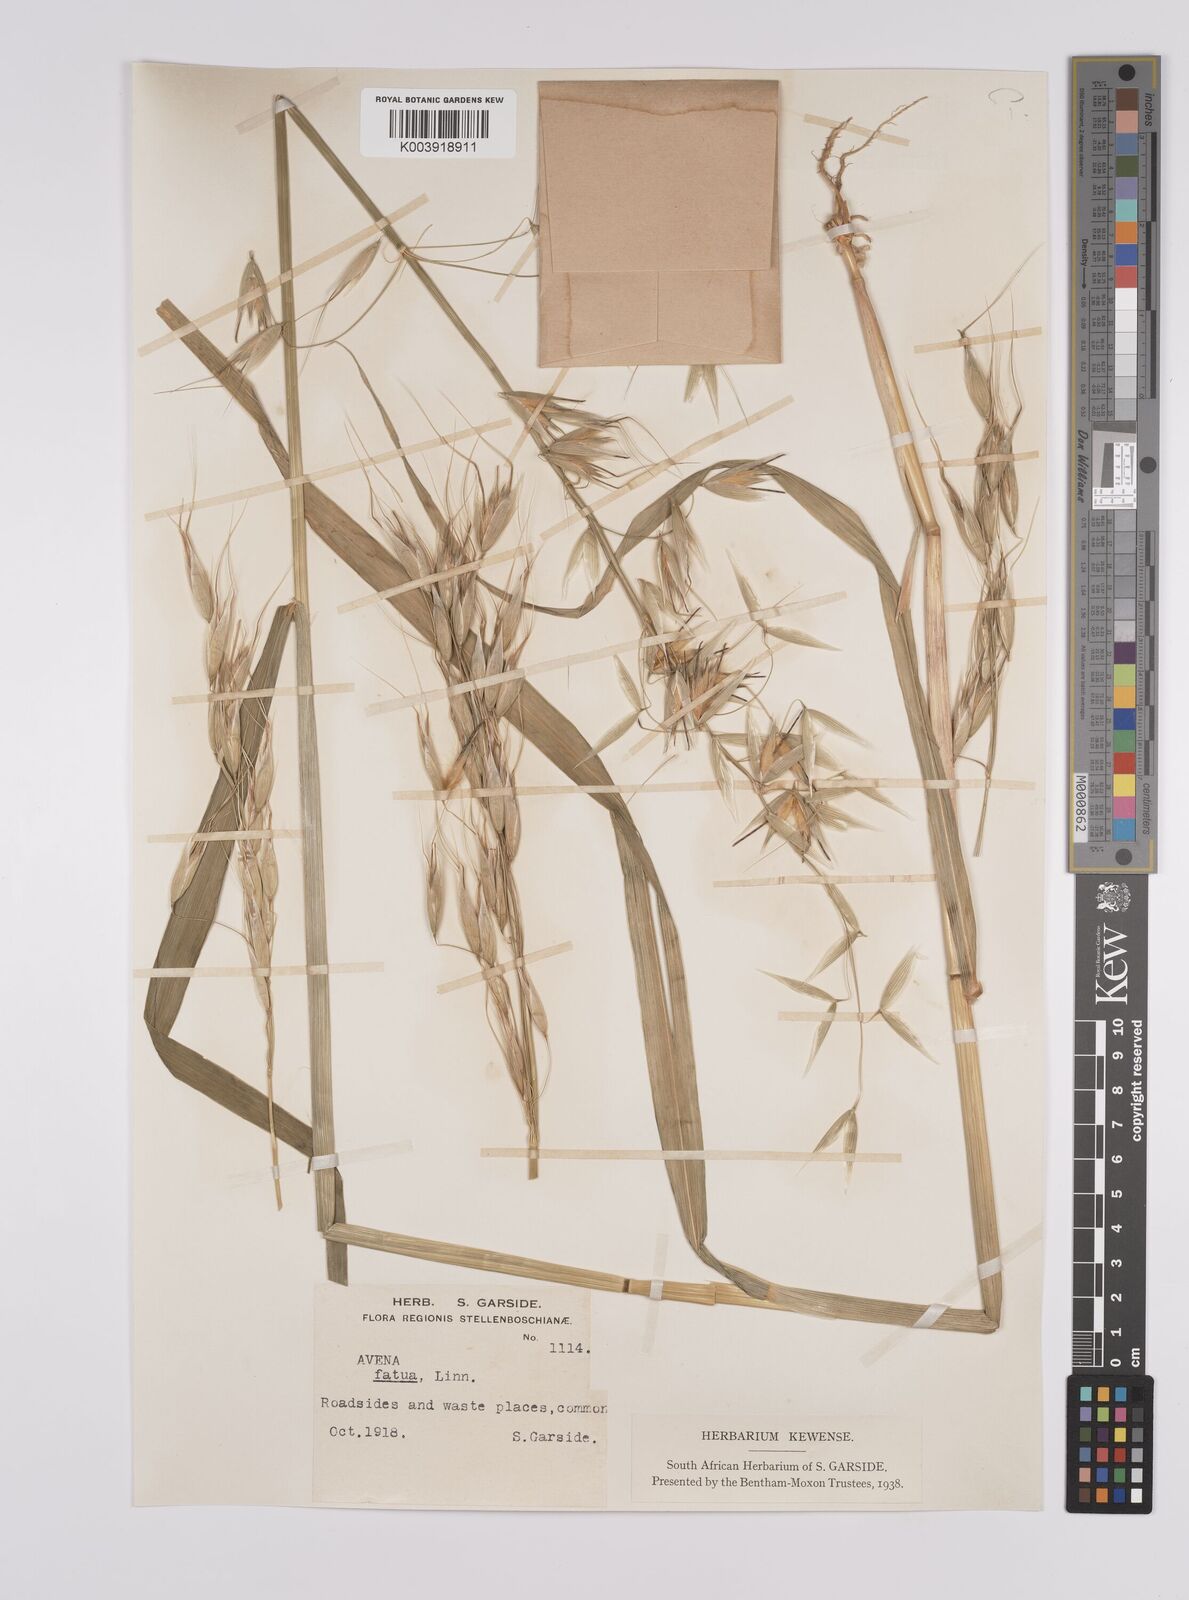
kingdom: Plantae
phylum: Tracheophyta
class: Liliopsida
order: Poales
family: Poaceae
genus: Avena
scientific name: Avena fatua
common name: Wild oat
